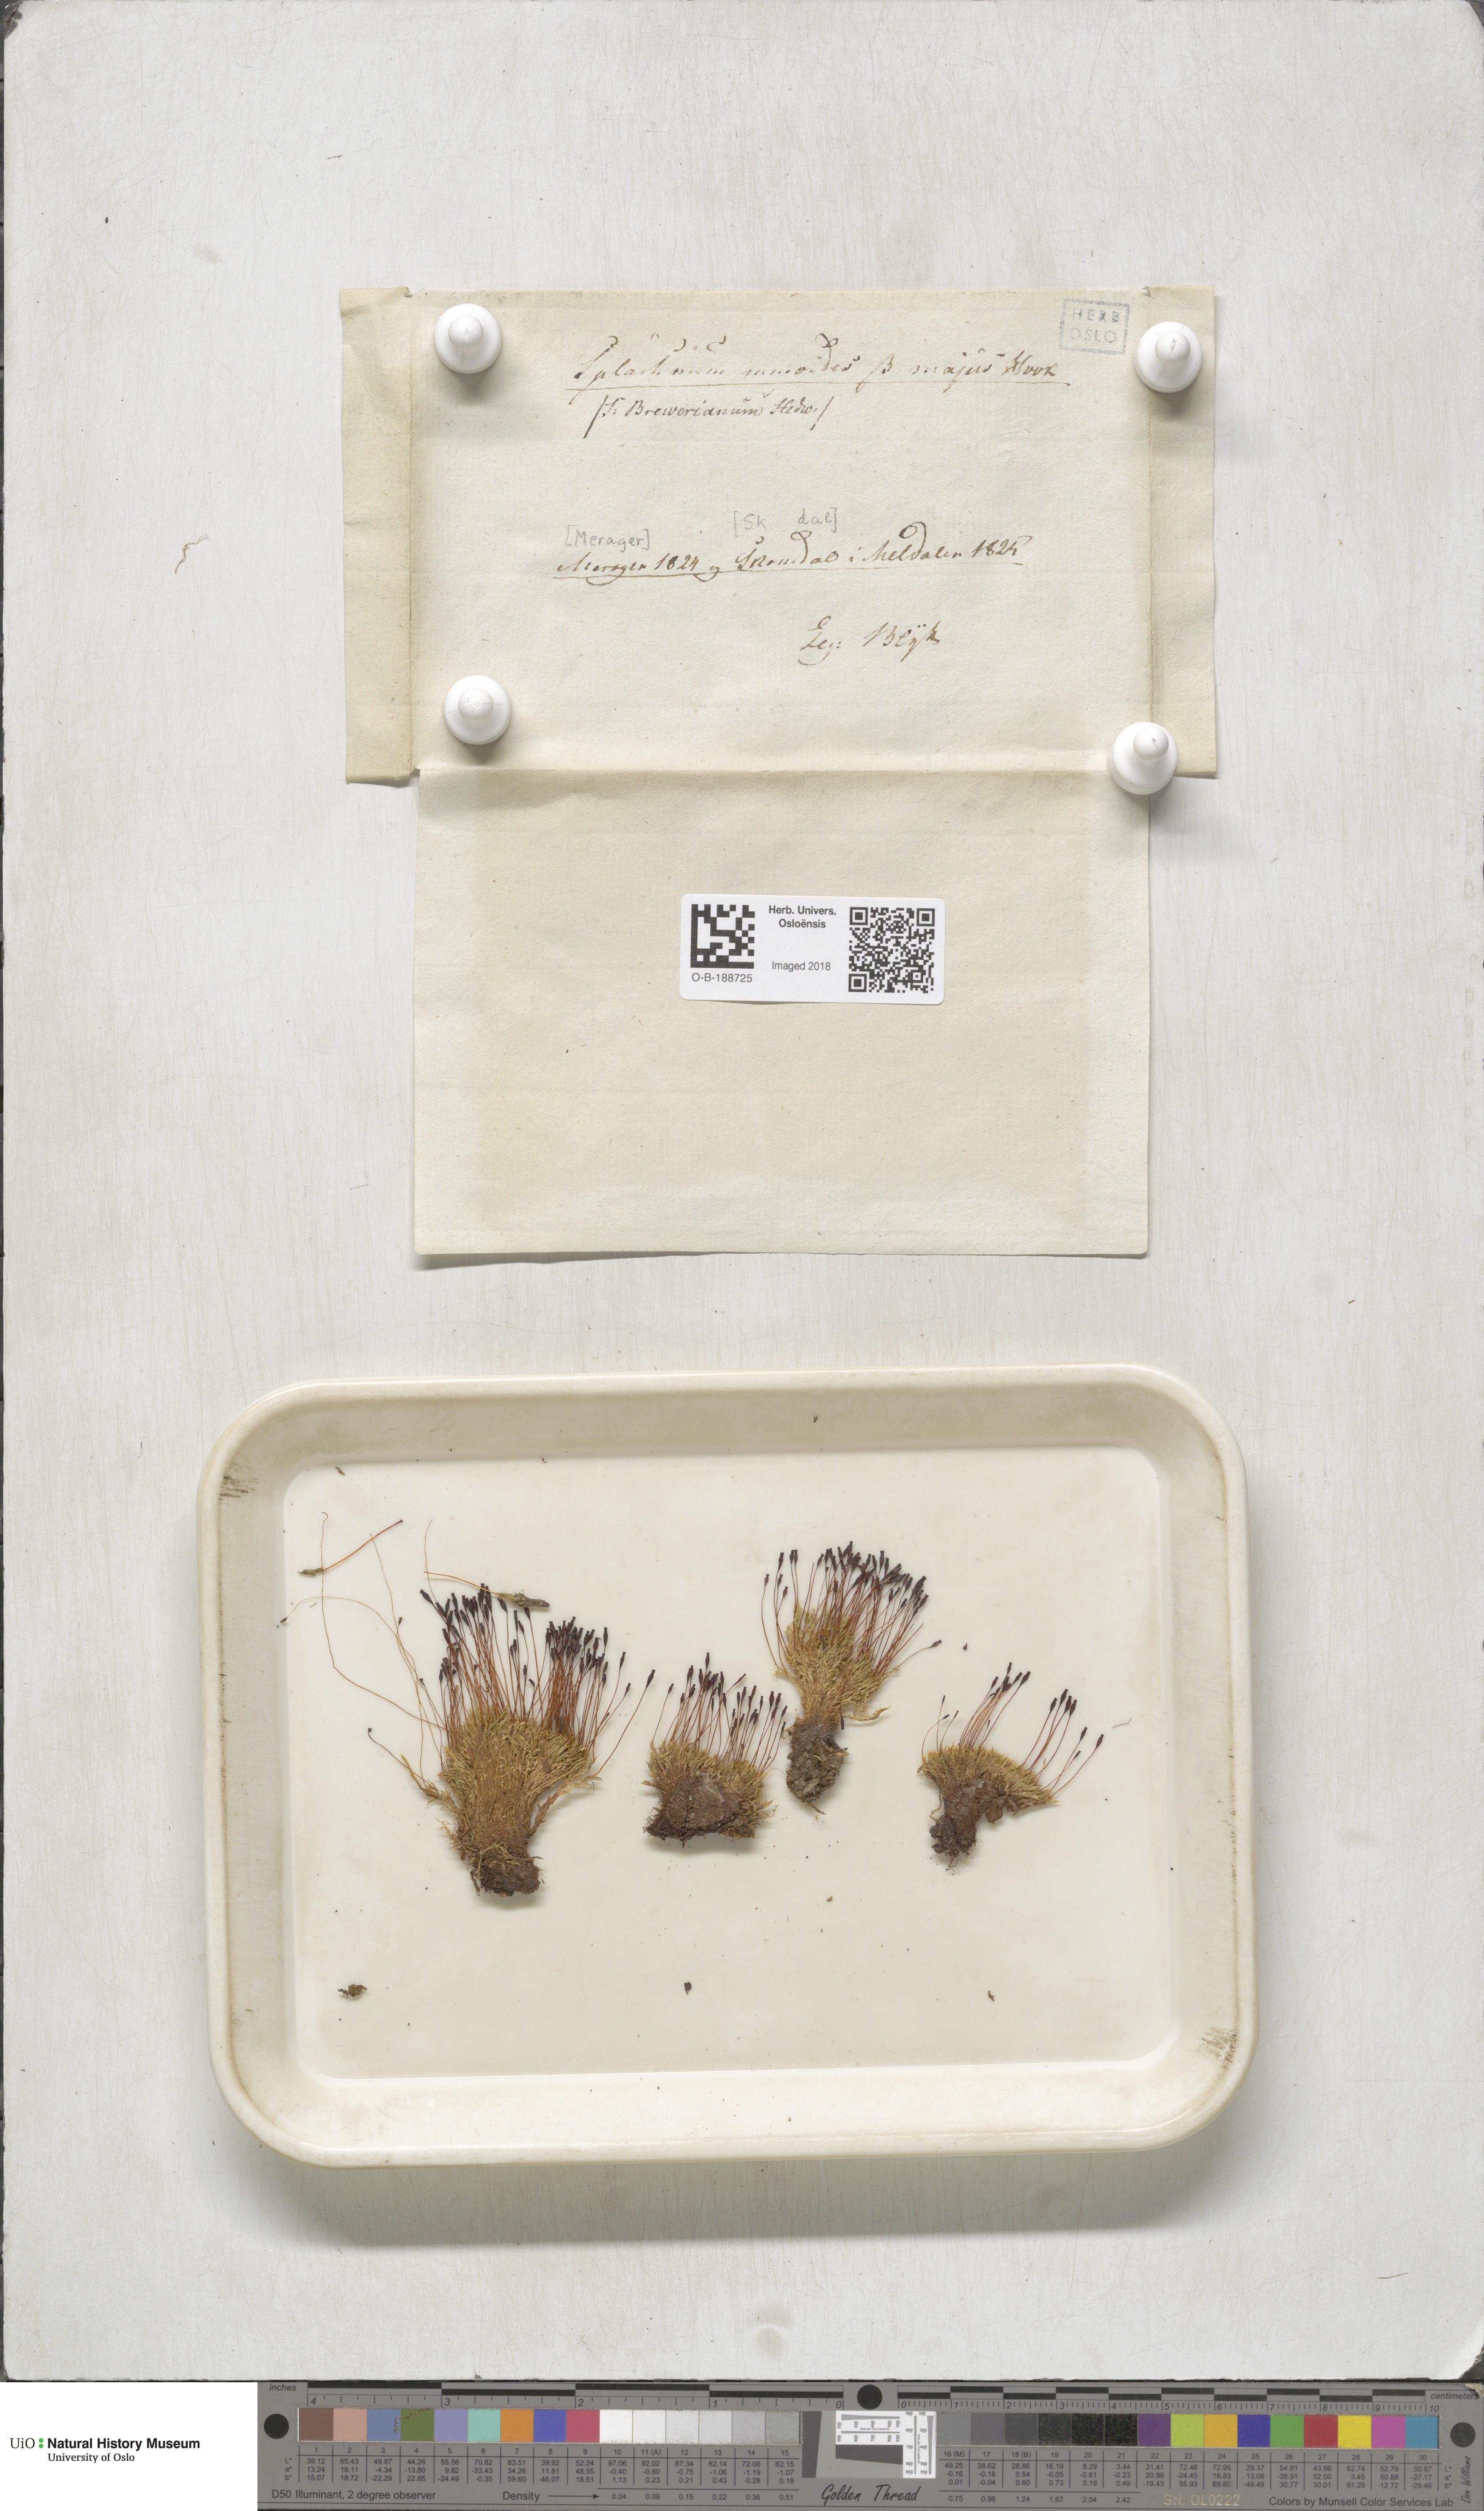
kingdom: Plantae
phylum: Bryophyta
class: Bryopsida
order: Splachnales
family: Splachnaceae
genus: Tetraplodon
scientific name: Tetraplodon mnioides
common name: Entire-leaved nitrogen moss
